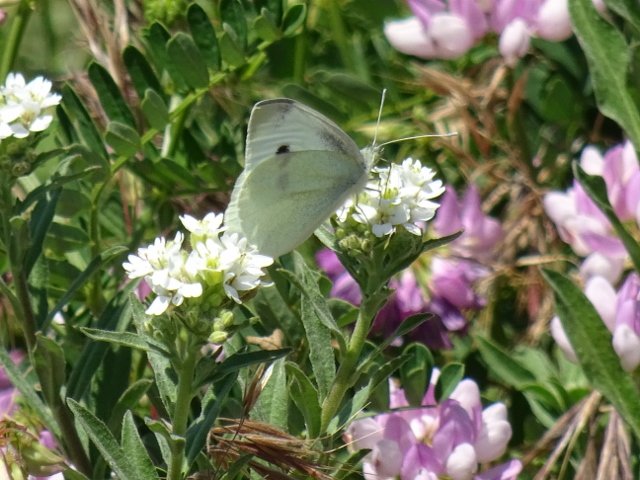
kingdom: Animalia
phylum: Arthropoda
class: Insecta
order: Lepidoptera
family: Pieridae
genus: Pieris
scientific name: Pieris rapae
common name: Cabbage White
